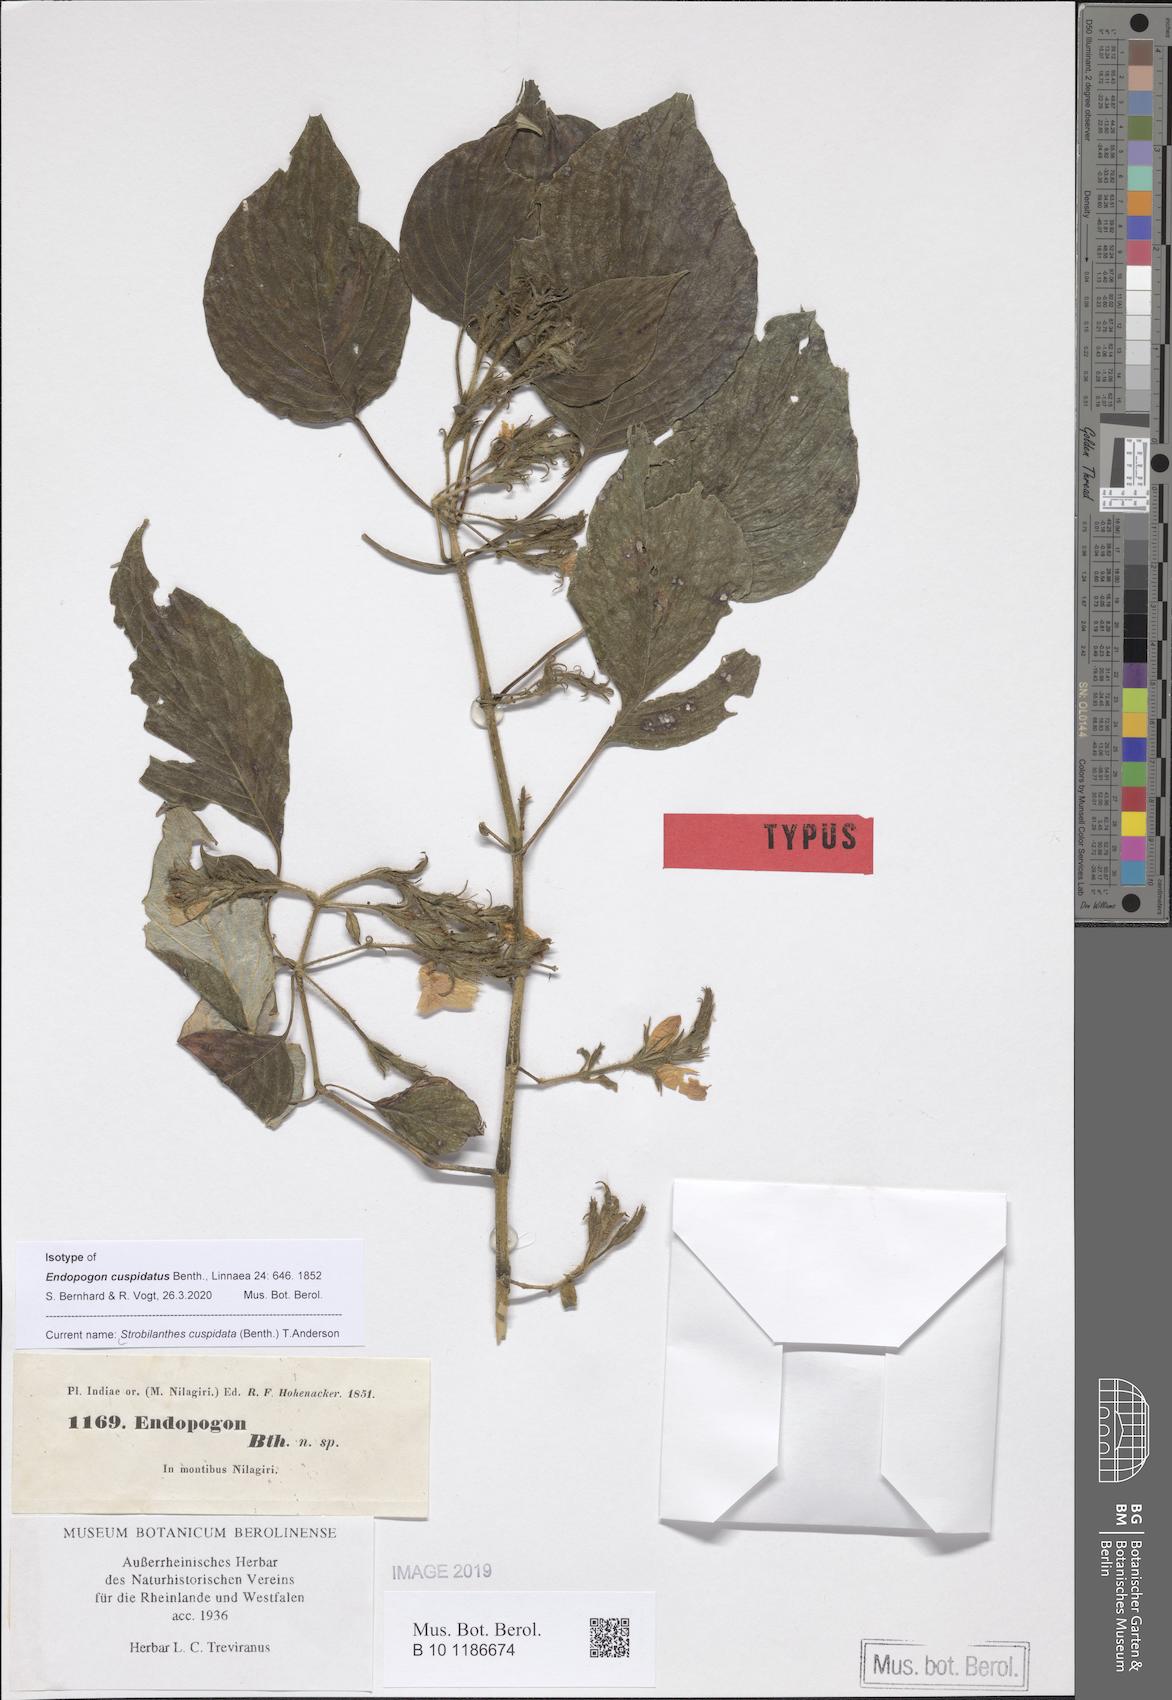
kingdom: Plantae
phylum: Tracheophyta
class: Magnoliopsida
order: Lamiales
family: Acanthaceae
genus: Strobilanthes
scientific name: Strobilanthes benthamii
